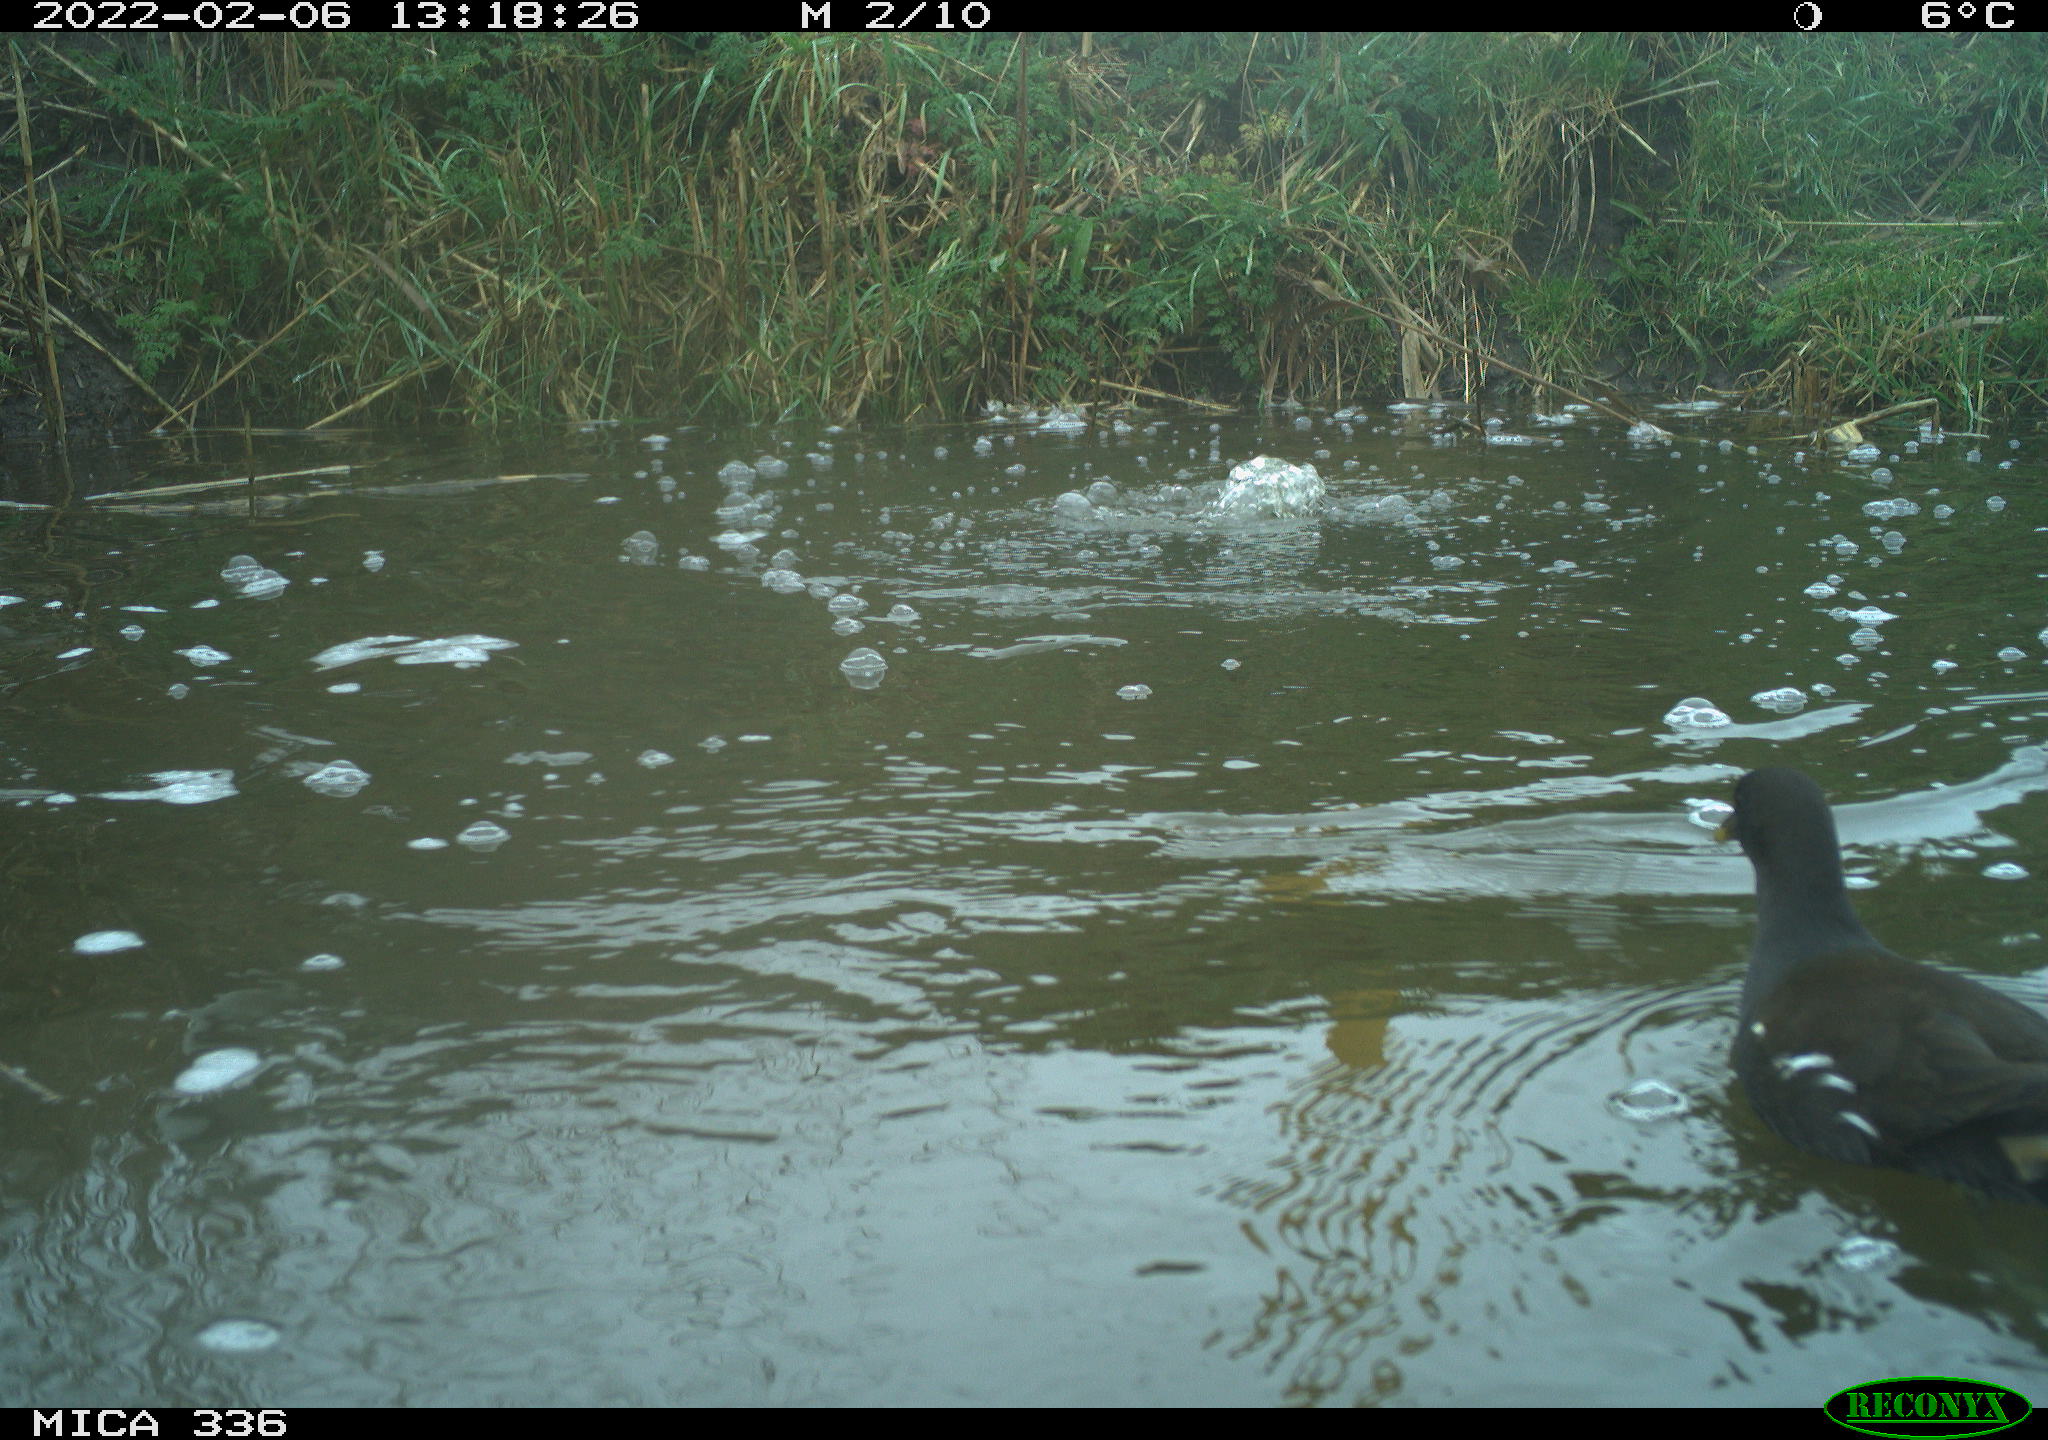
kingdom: Animalia
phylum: Chordata
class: Aves
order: Gruiformes
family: Rallidae
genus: Gallinula
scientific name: Gallinula chloropus
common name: Common moorhen
